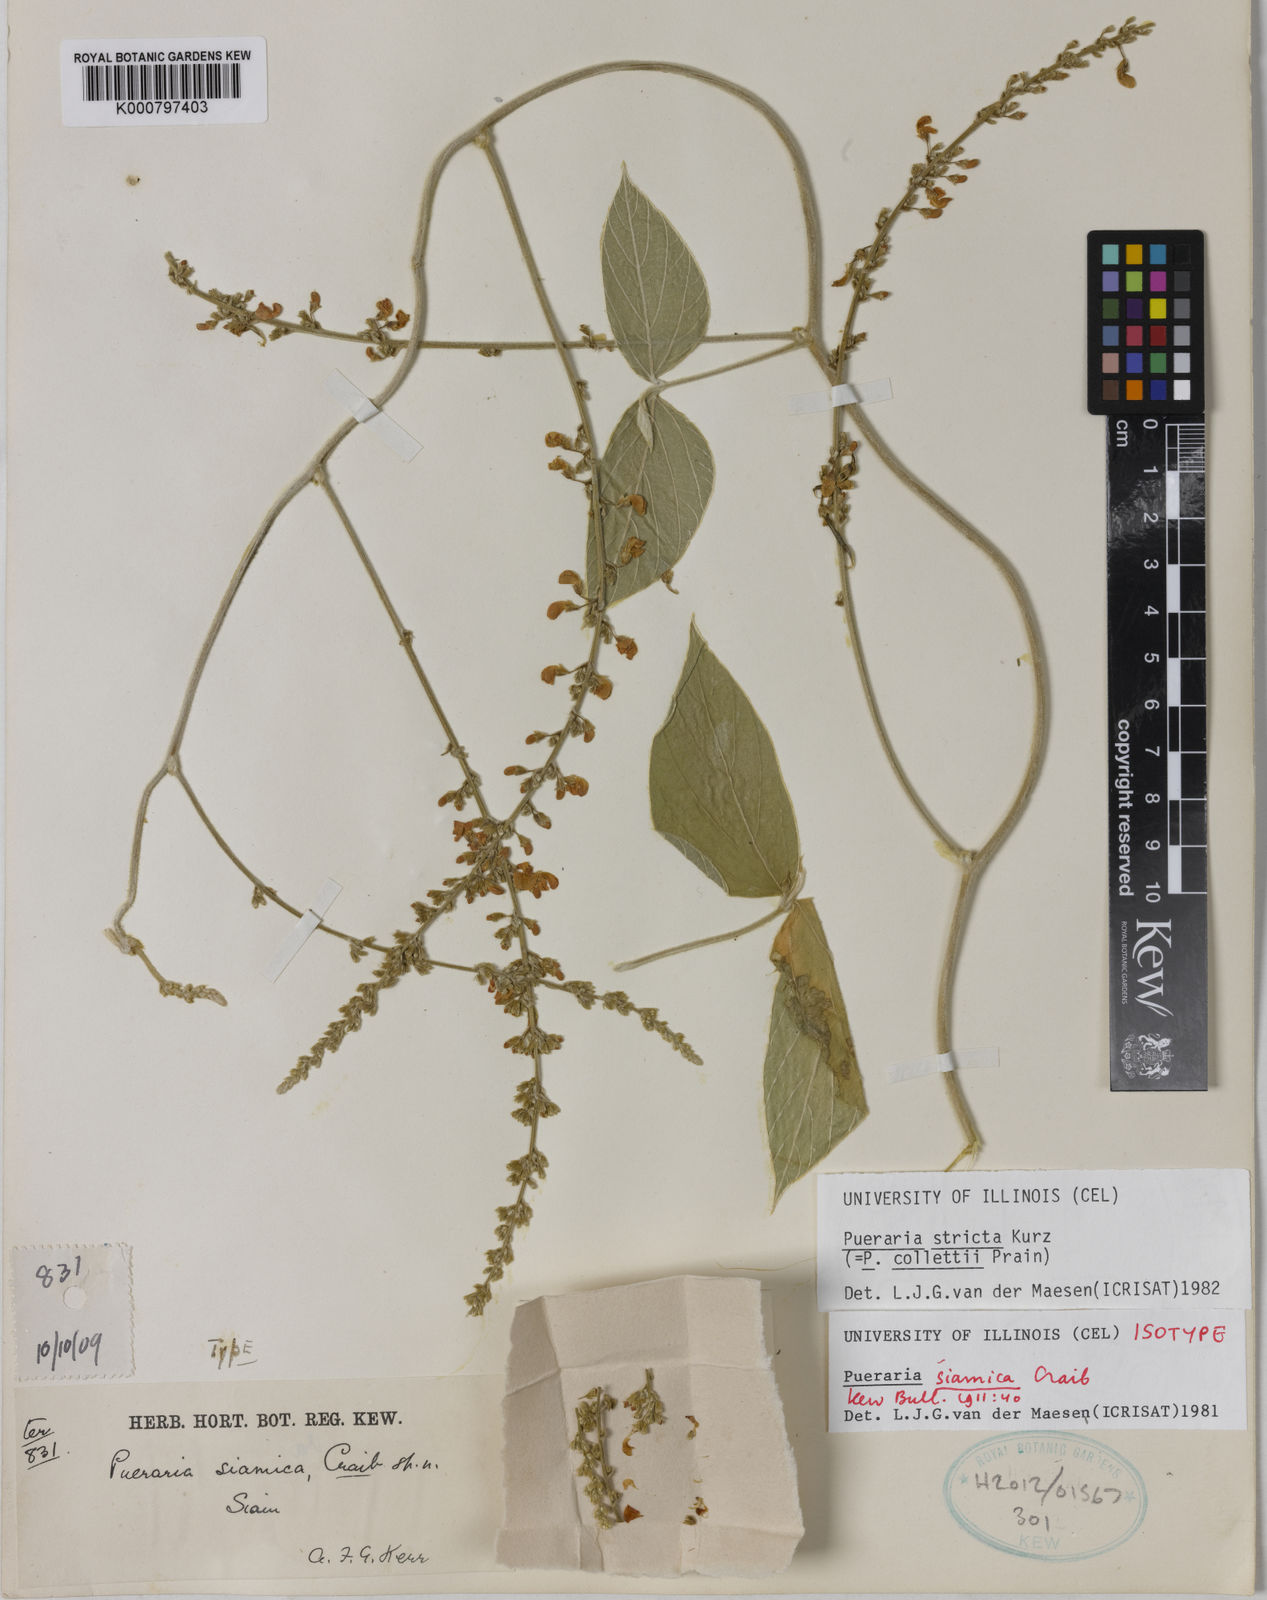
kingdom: Plantae
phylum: Tracheophyta
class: Magnoliopsida
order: Fabales
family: Fabaceae
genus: Teyleria
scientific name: Teyleria stricta
